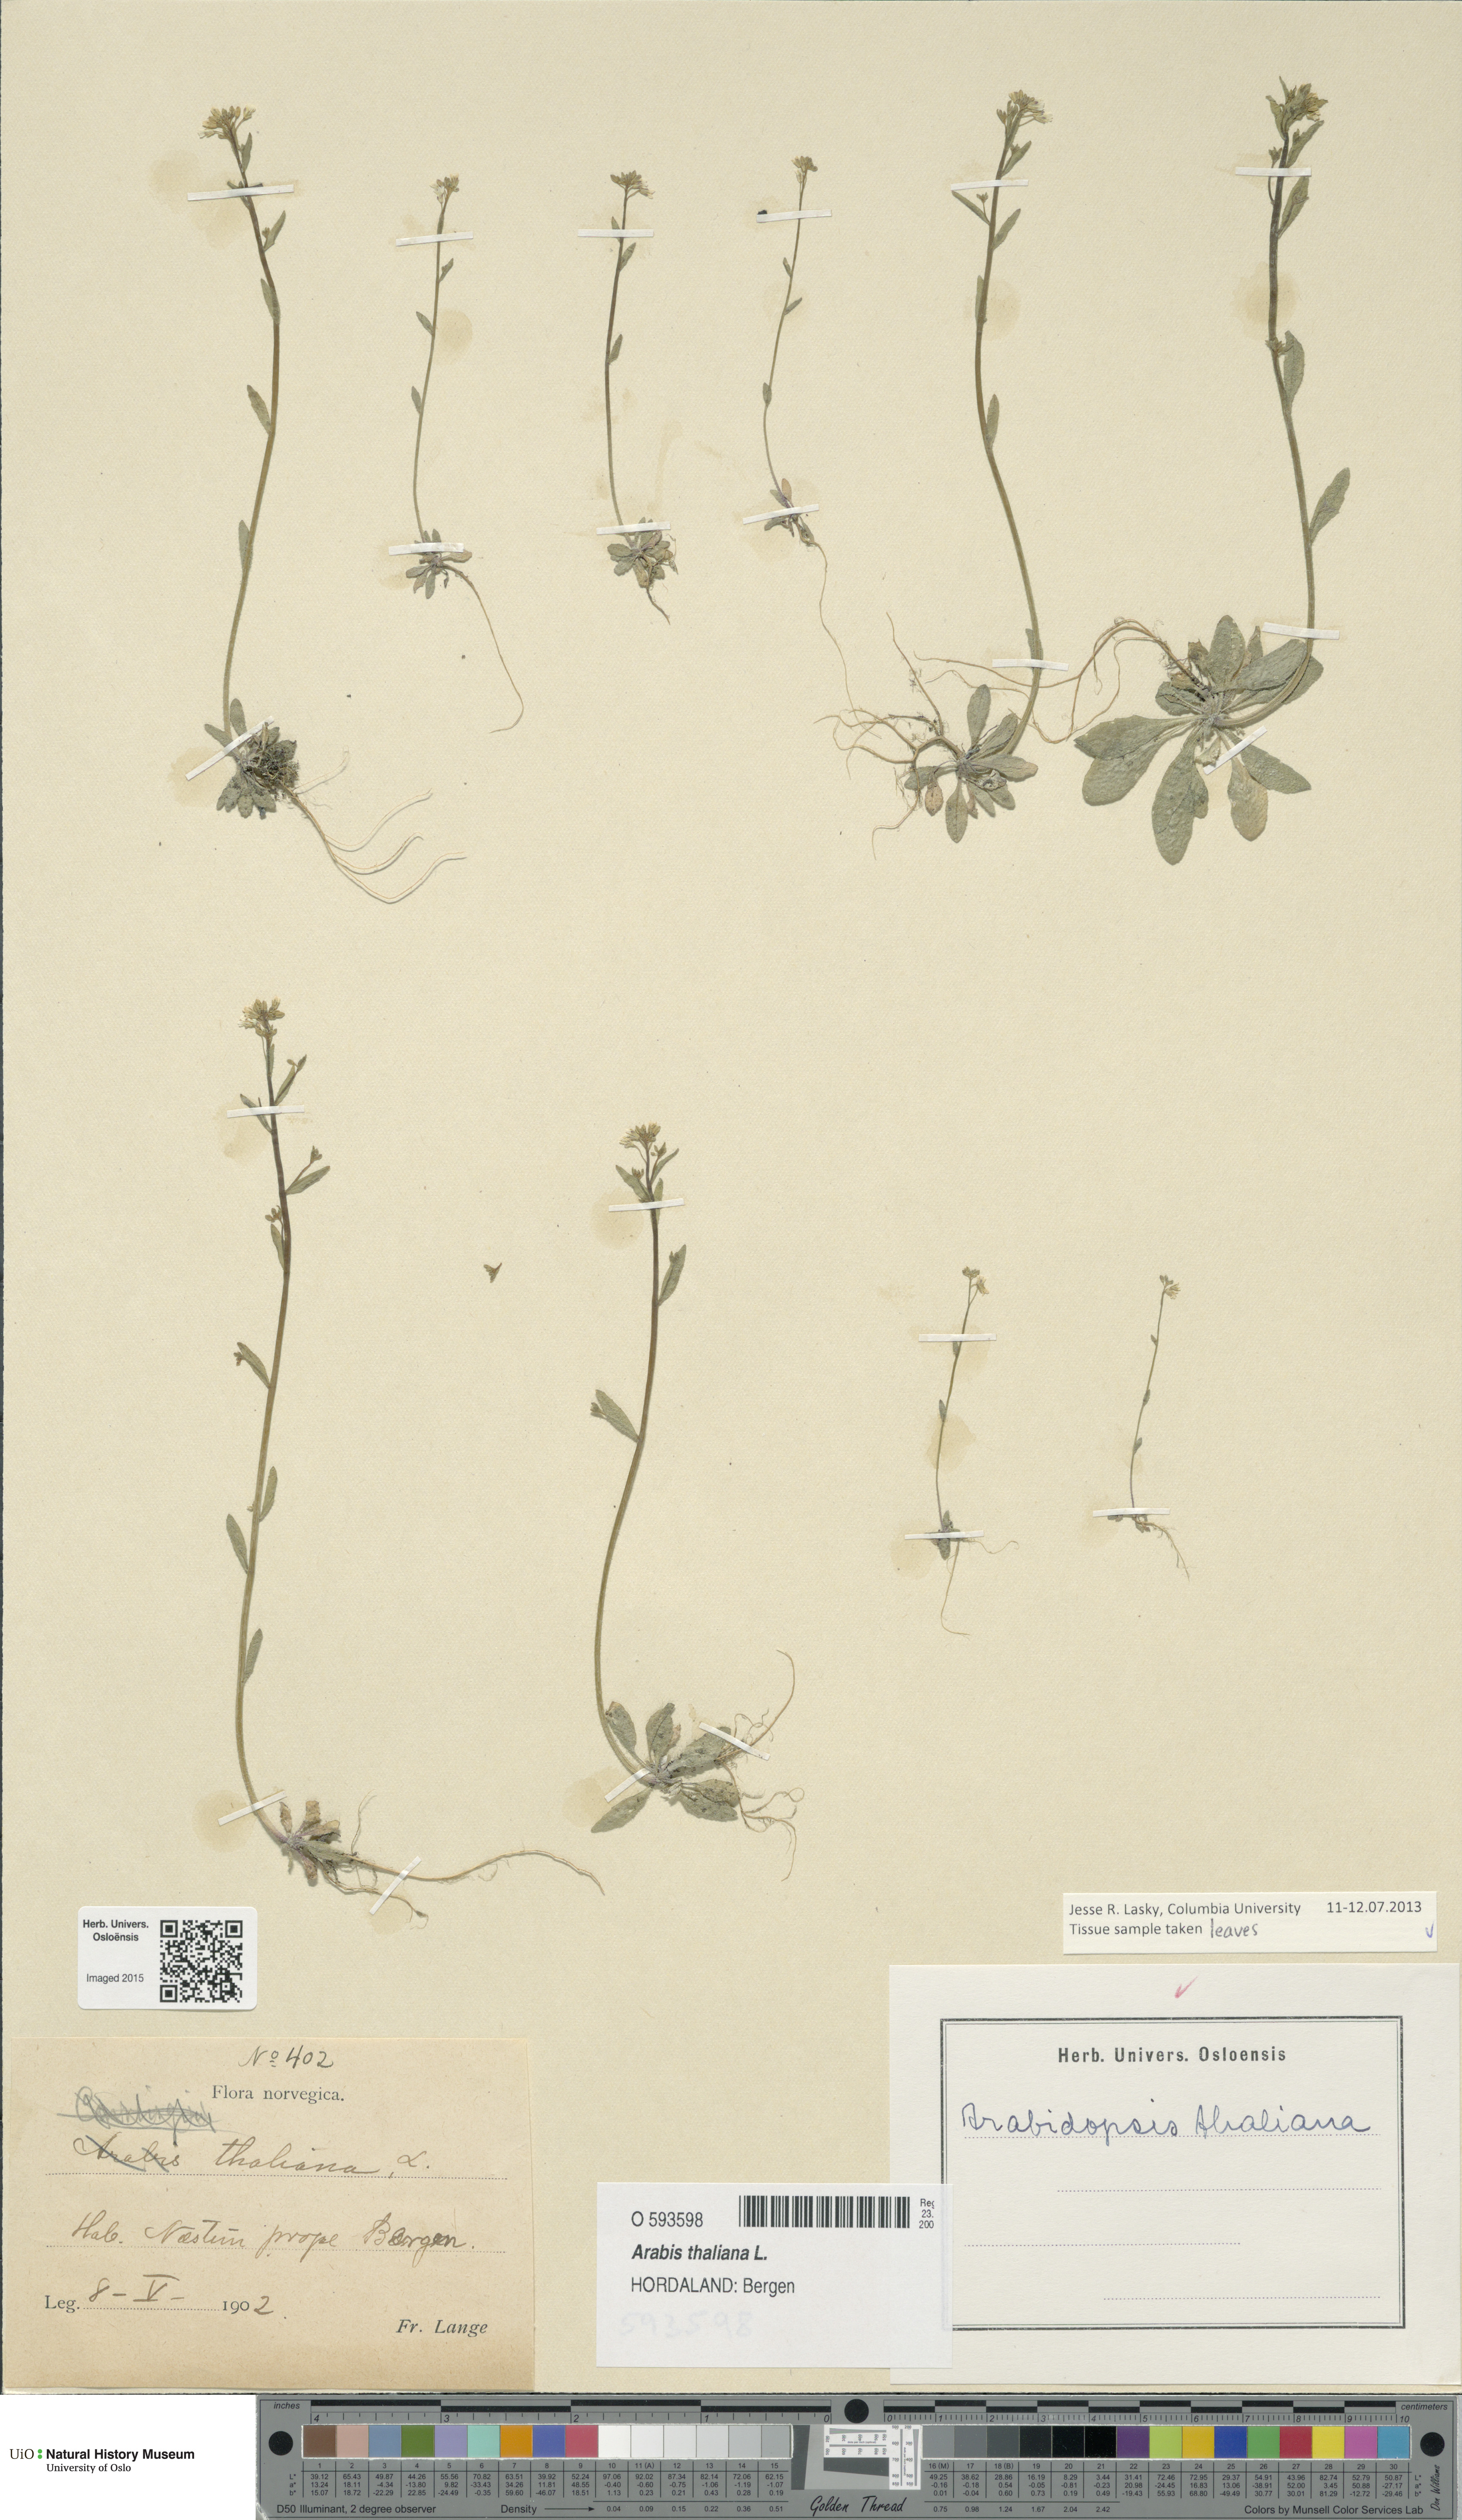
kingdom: Plantae
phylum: Tracheophyta
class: Magnoliopsida
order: Brassicales
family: Brassicaceae
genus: Arabidopsis
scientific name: Arabidopsis thaliana
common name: Thale cress
